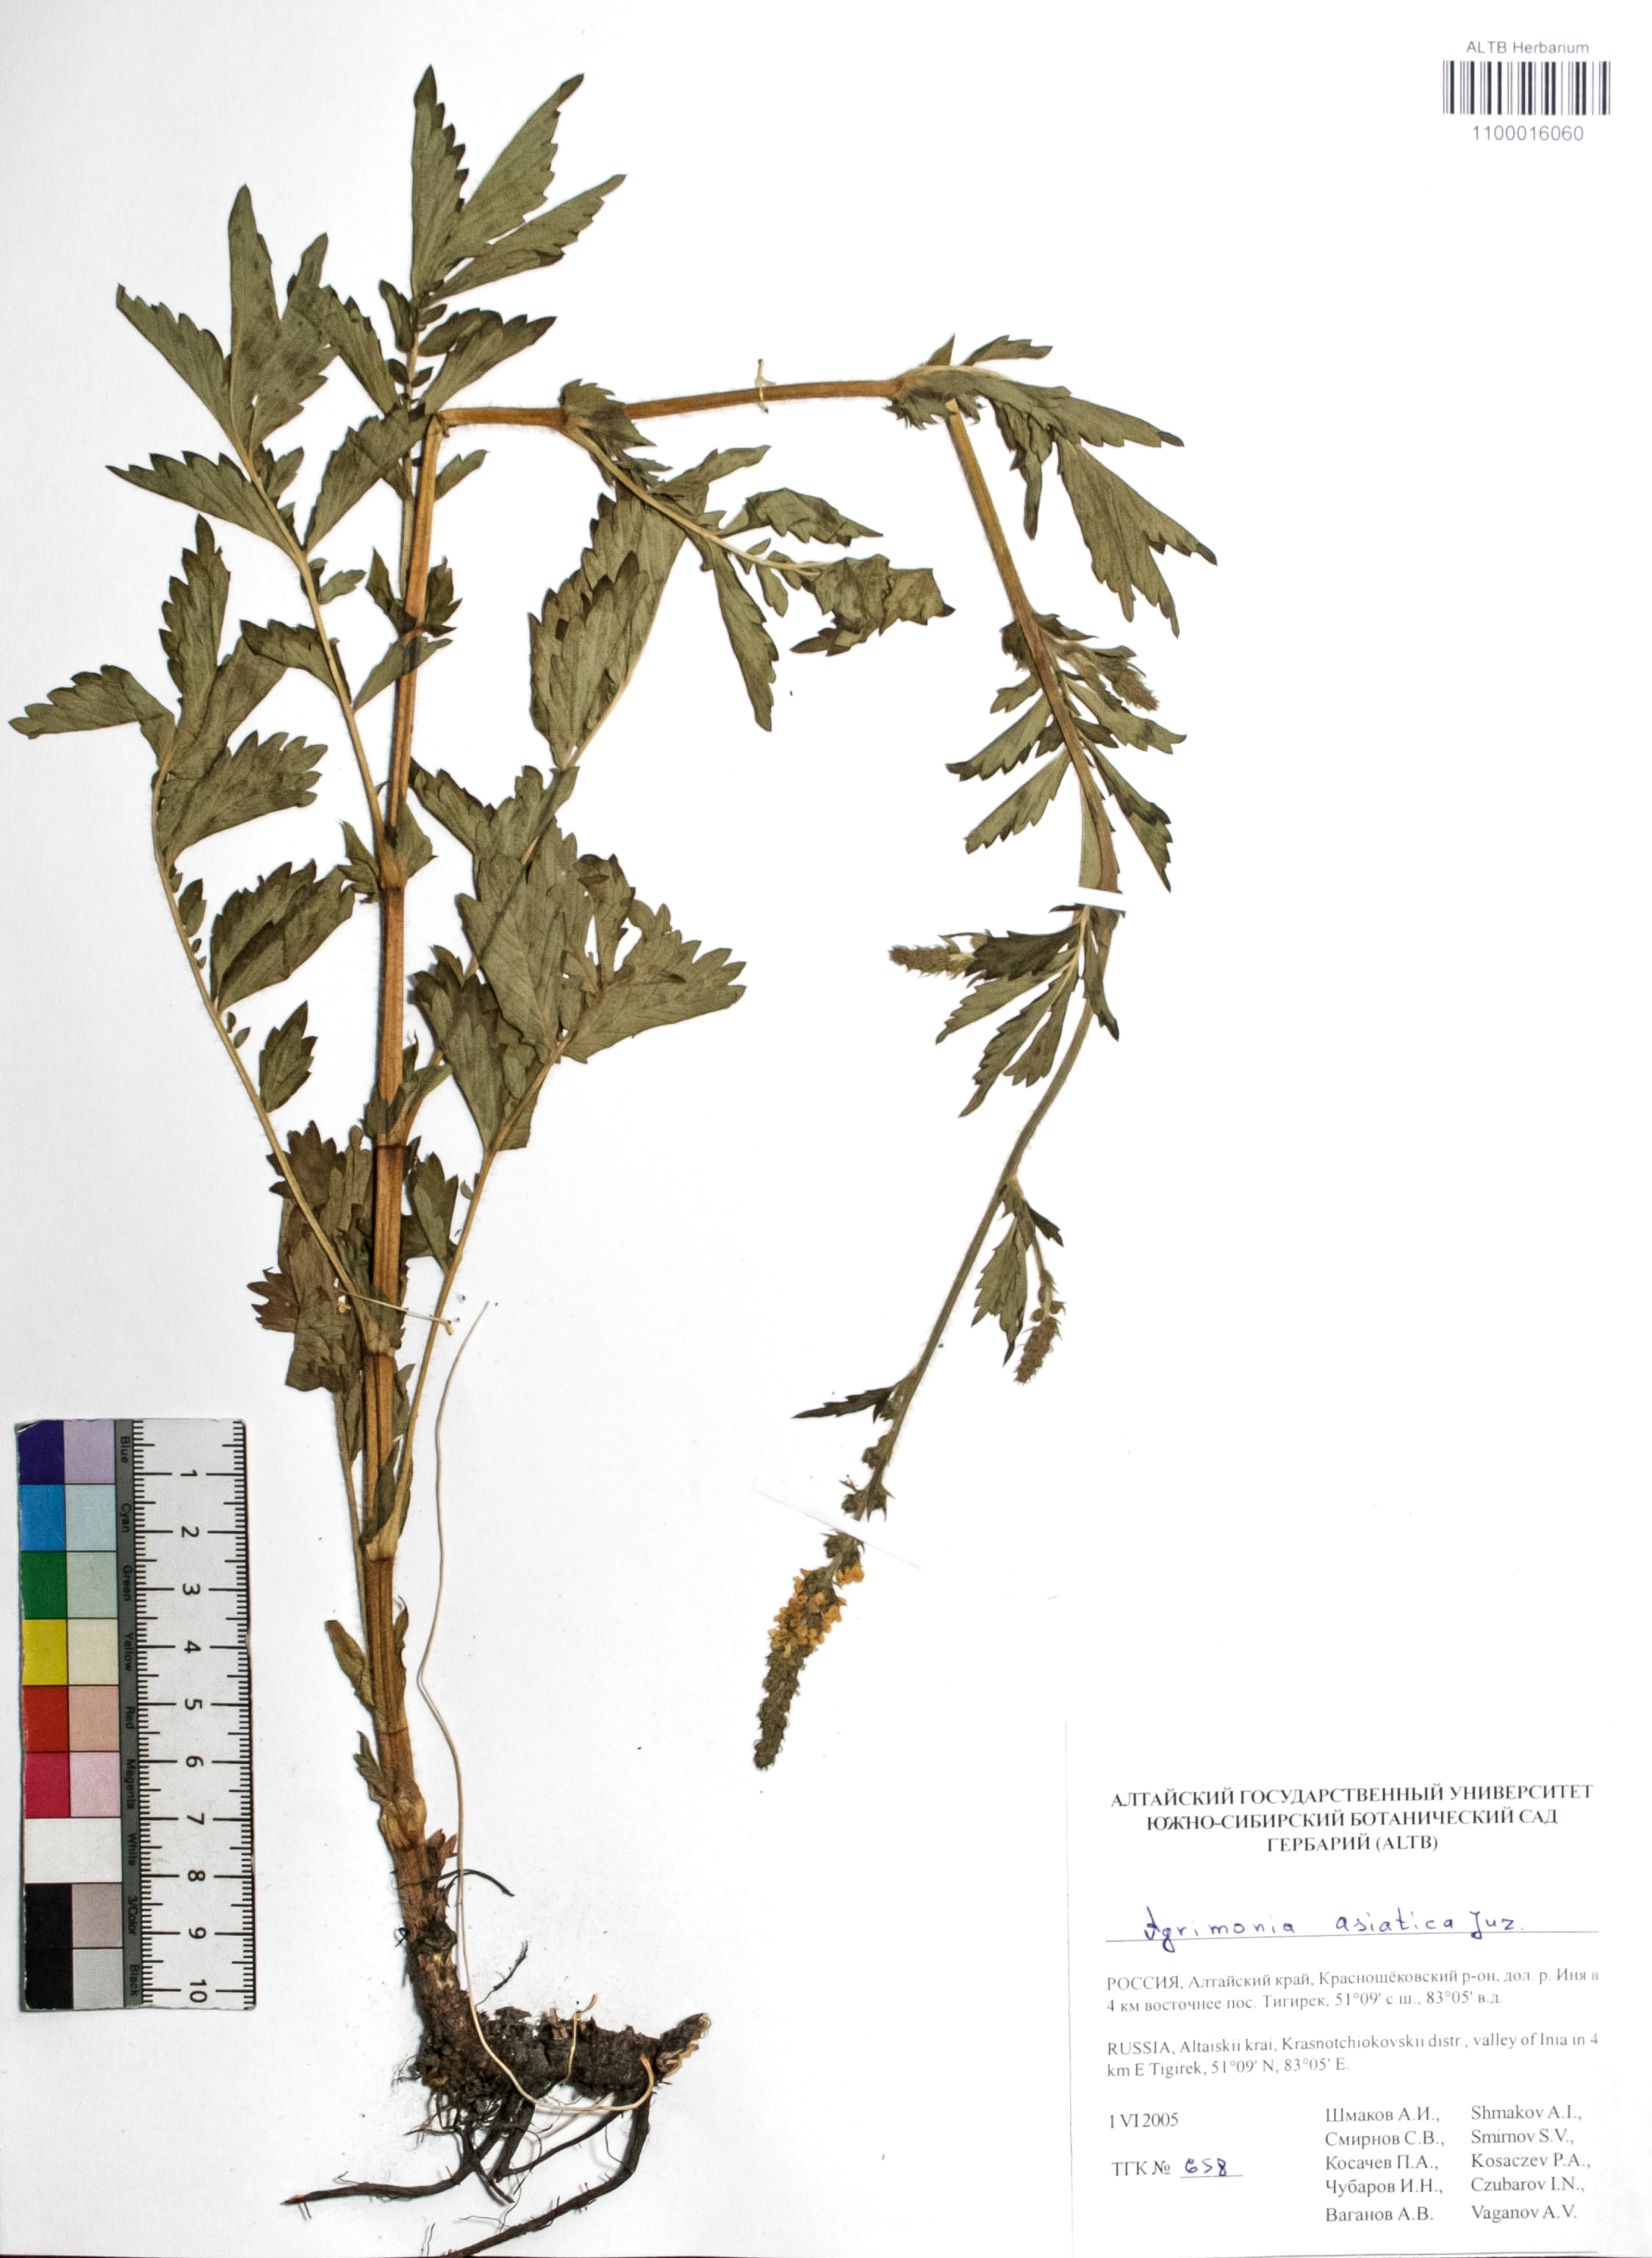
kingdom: Plantae
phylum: Tracheophyta
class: Magnoliopsida
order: Rosales
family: Rosaceae
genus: Agrimonia
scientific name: Agrimonia eupatoria
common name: Agrimony
